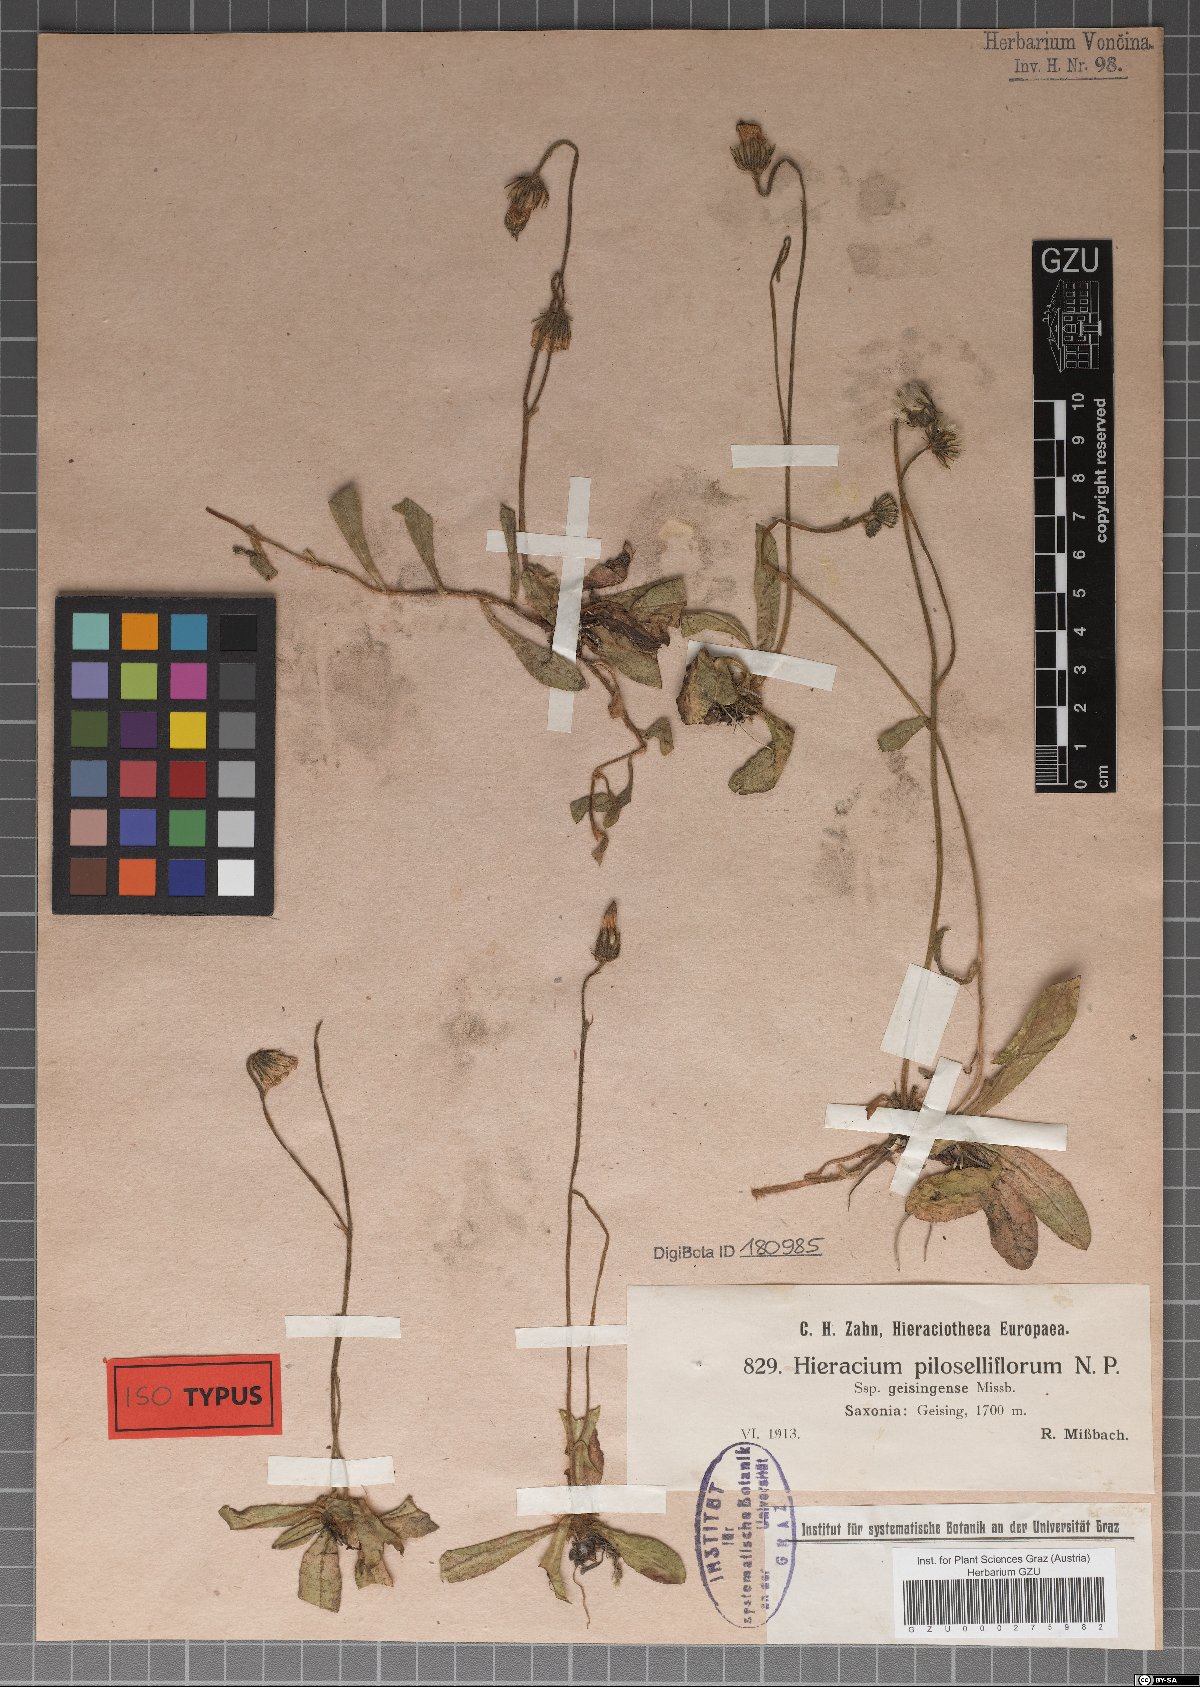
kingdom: Plantae
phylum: Tracheophyta
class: Magnoliopsida
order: Asterales
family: Asteraceae
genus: Pilosella
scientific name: Pilosella piloselliflora
